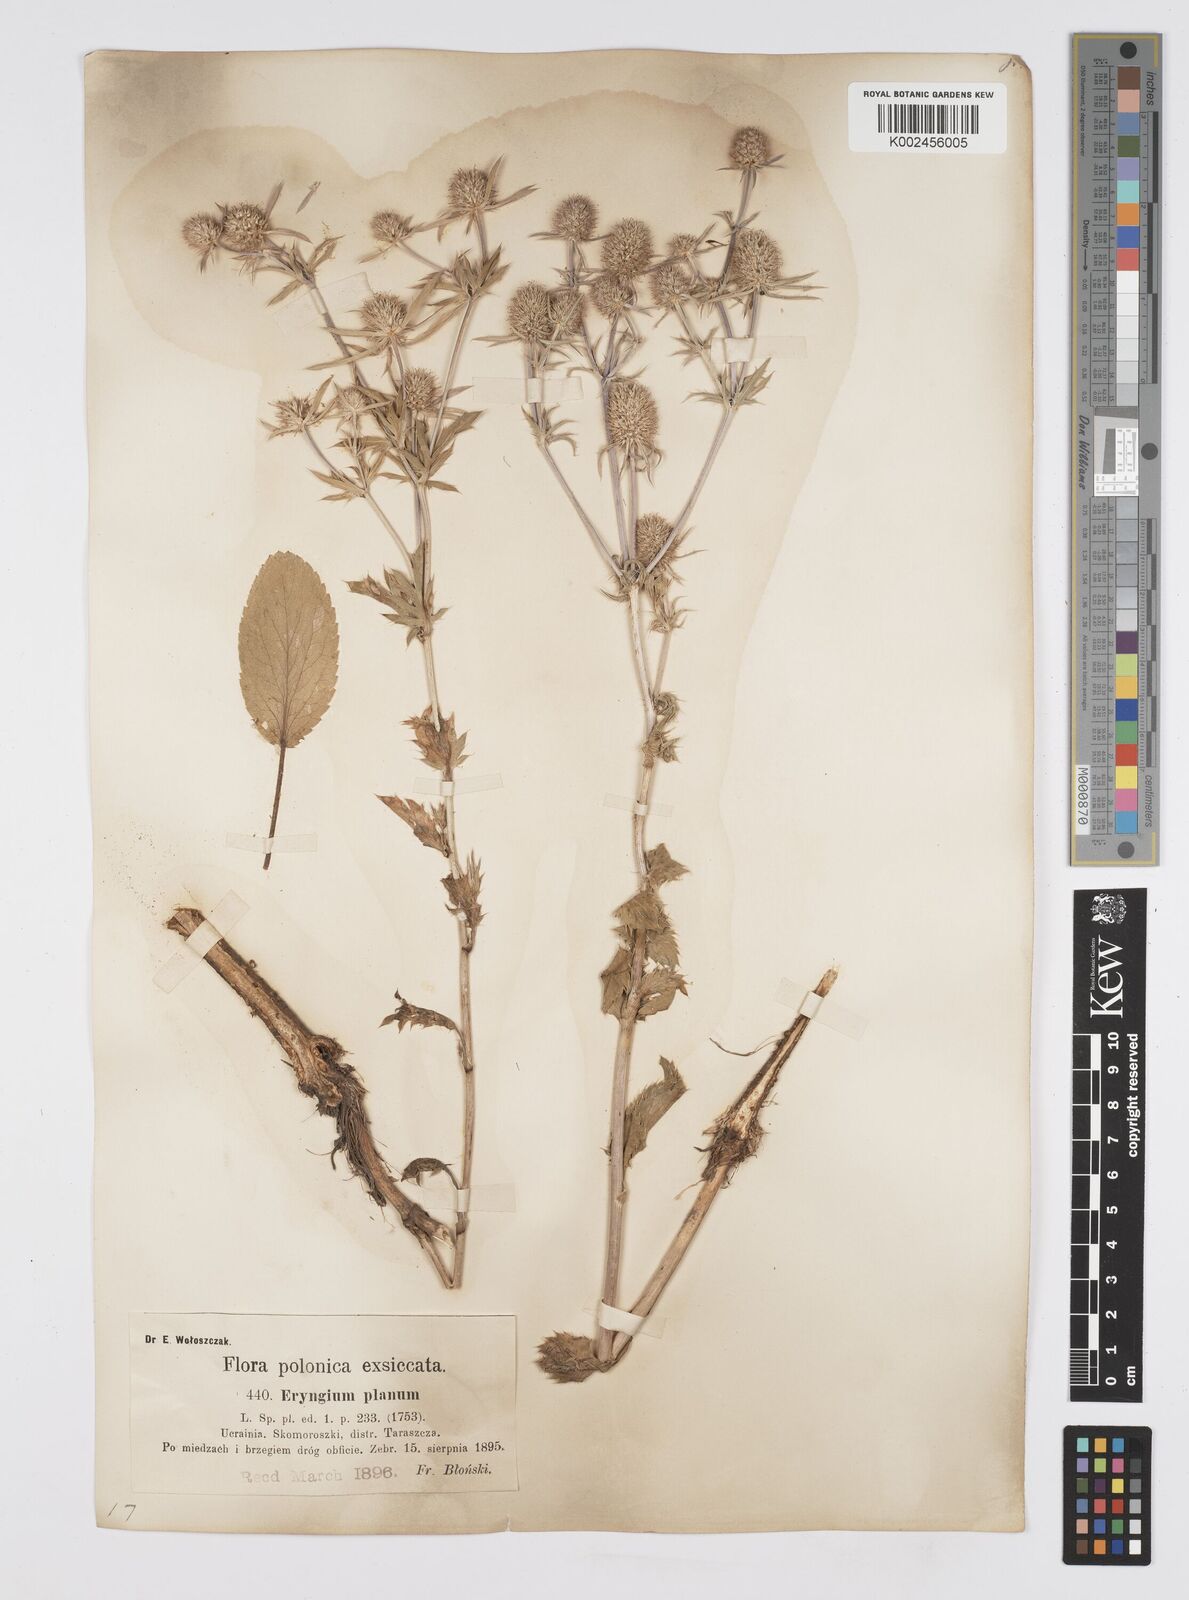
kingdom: Plantae
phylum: Tracheophyta
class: Magnoliopsida
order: Apiales
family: Apiaceae
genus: Eryngium
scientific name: Eryngium planum
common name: Blue eryngo
